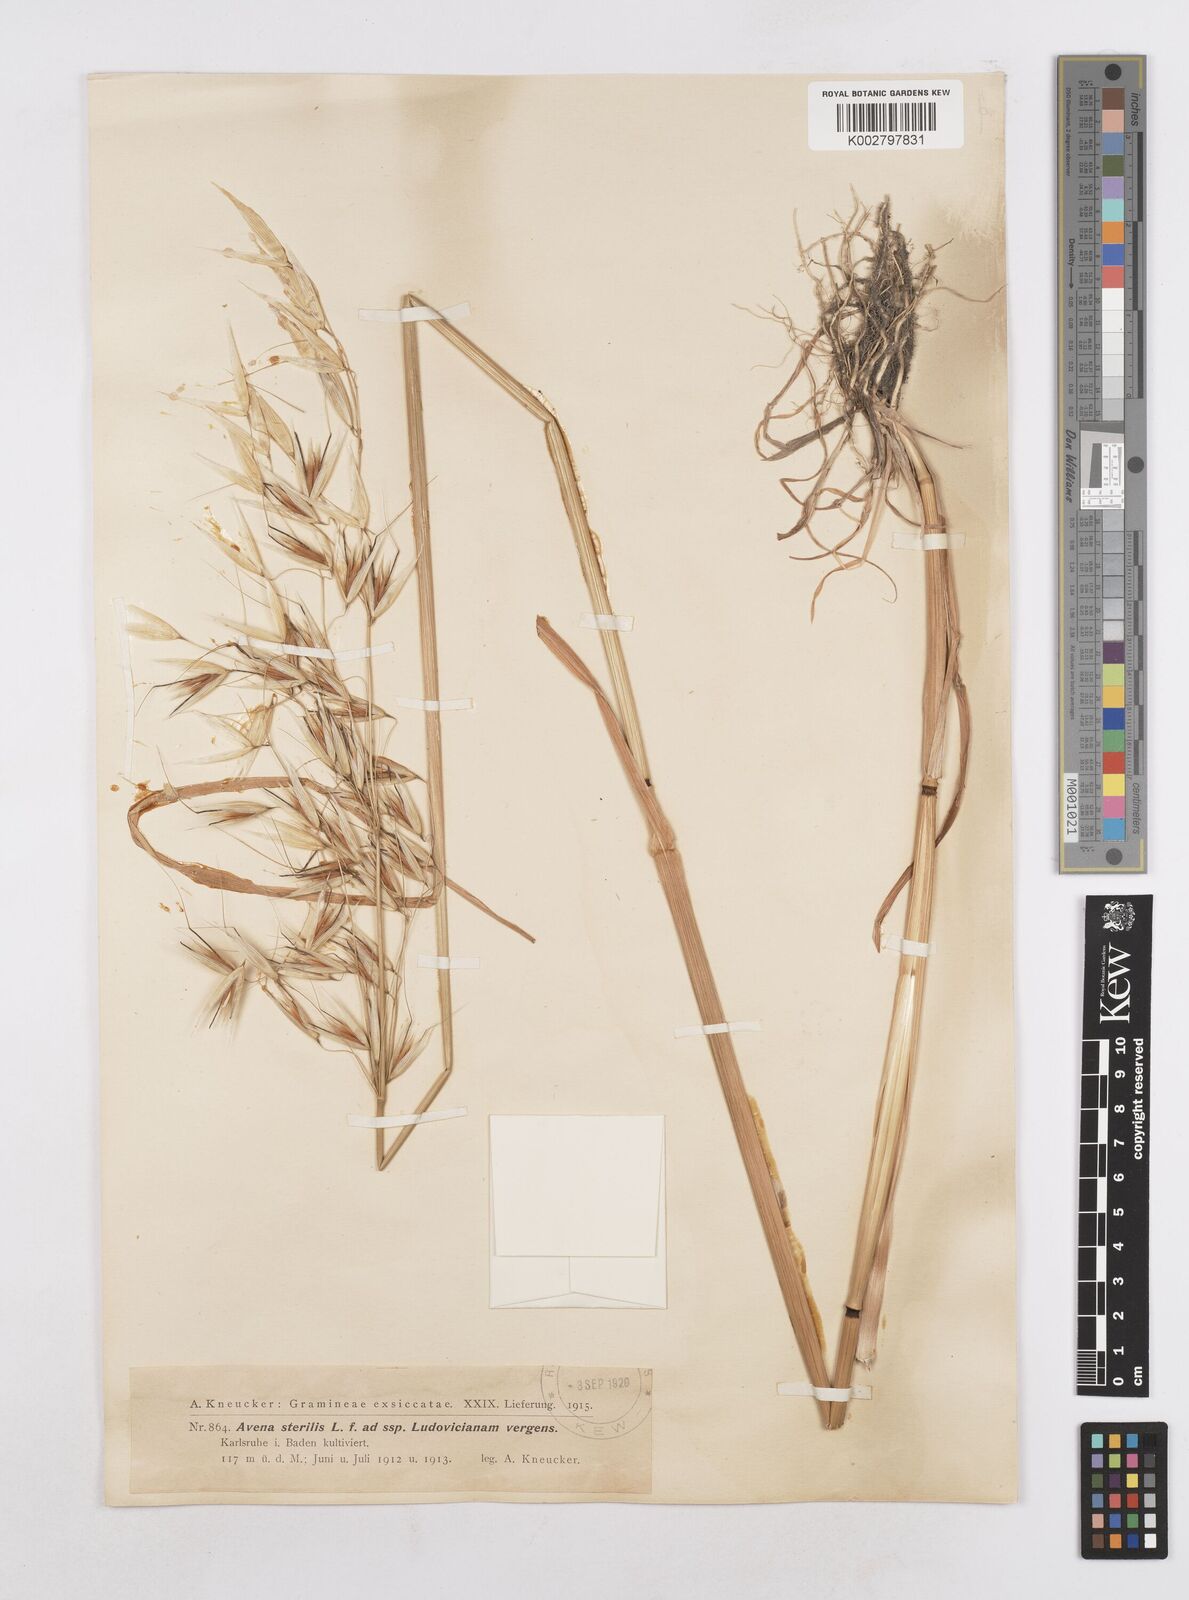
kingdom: Plantae
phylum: Tracheophyta
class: Liliopsida
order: Poales
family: Poaceae
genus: Avena
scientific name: Avena sterilis
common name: Animated oat
